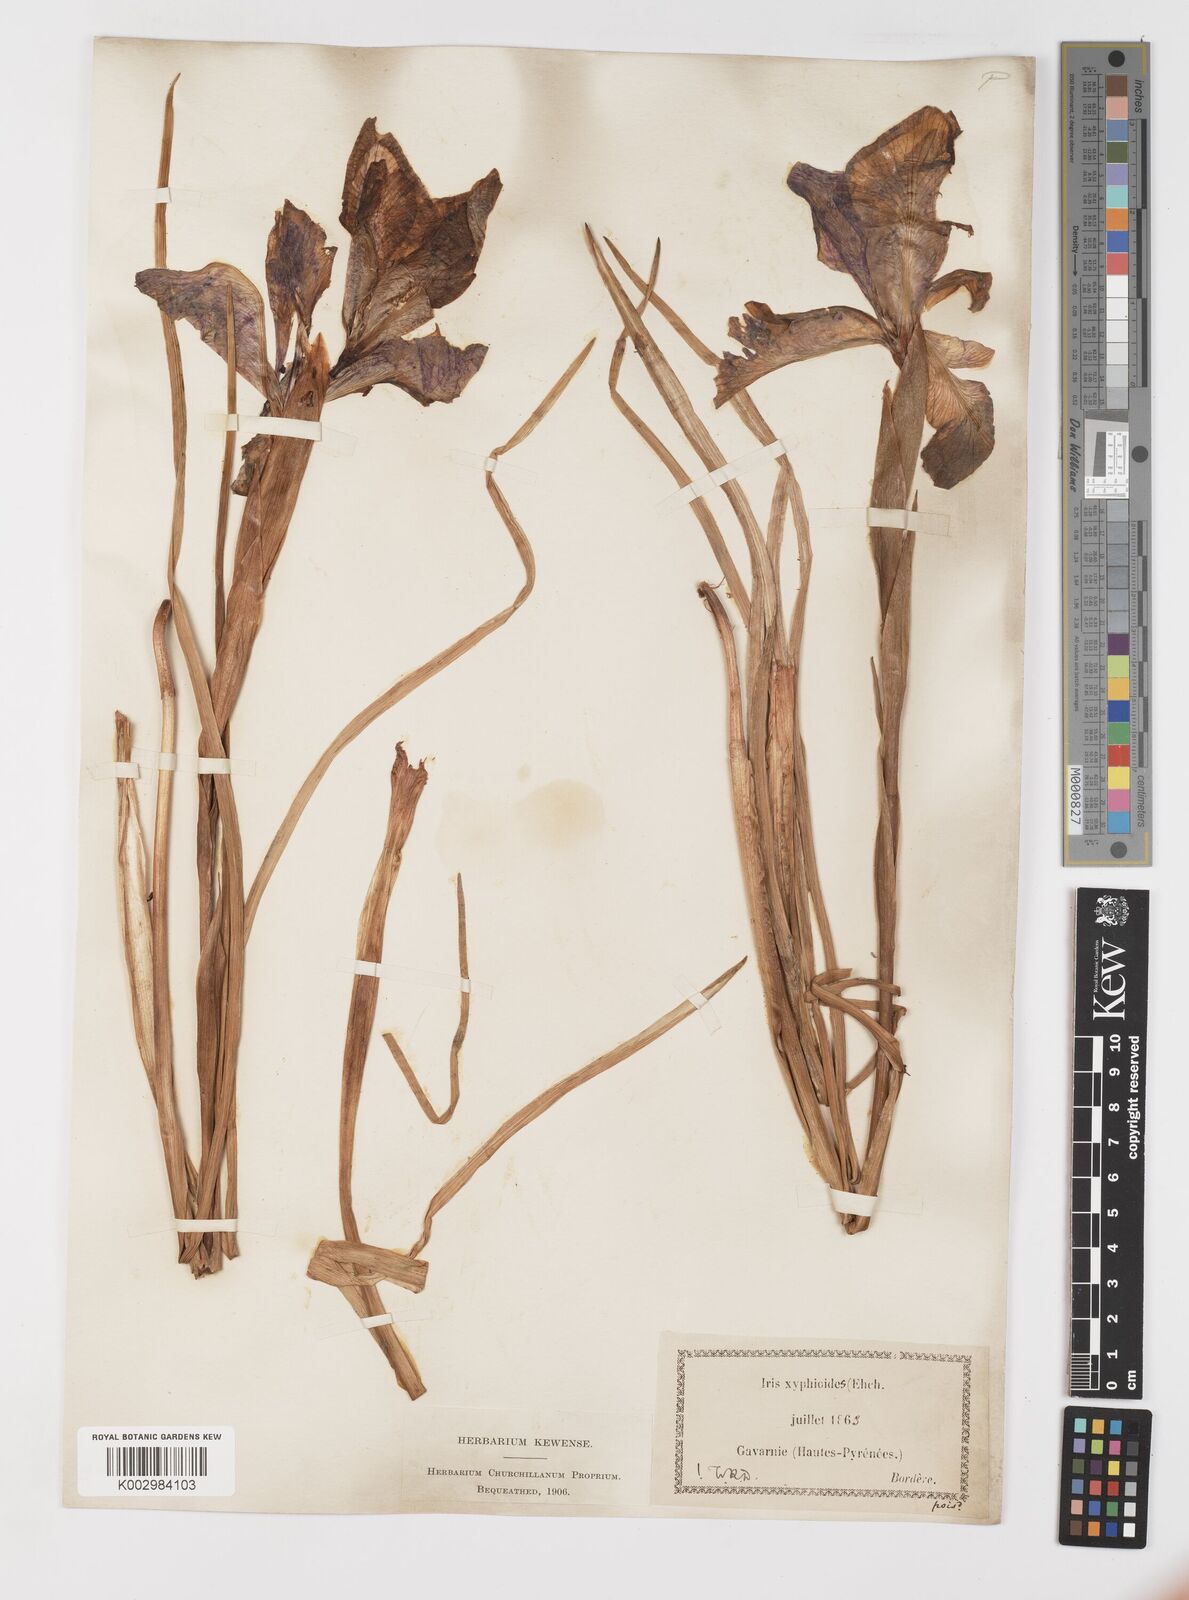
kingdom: Plantae
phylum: Tracheophyta
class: Liliopsida
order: Asparagales
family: Iridaceae
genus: Iris
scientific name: Iris jacquinii
